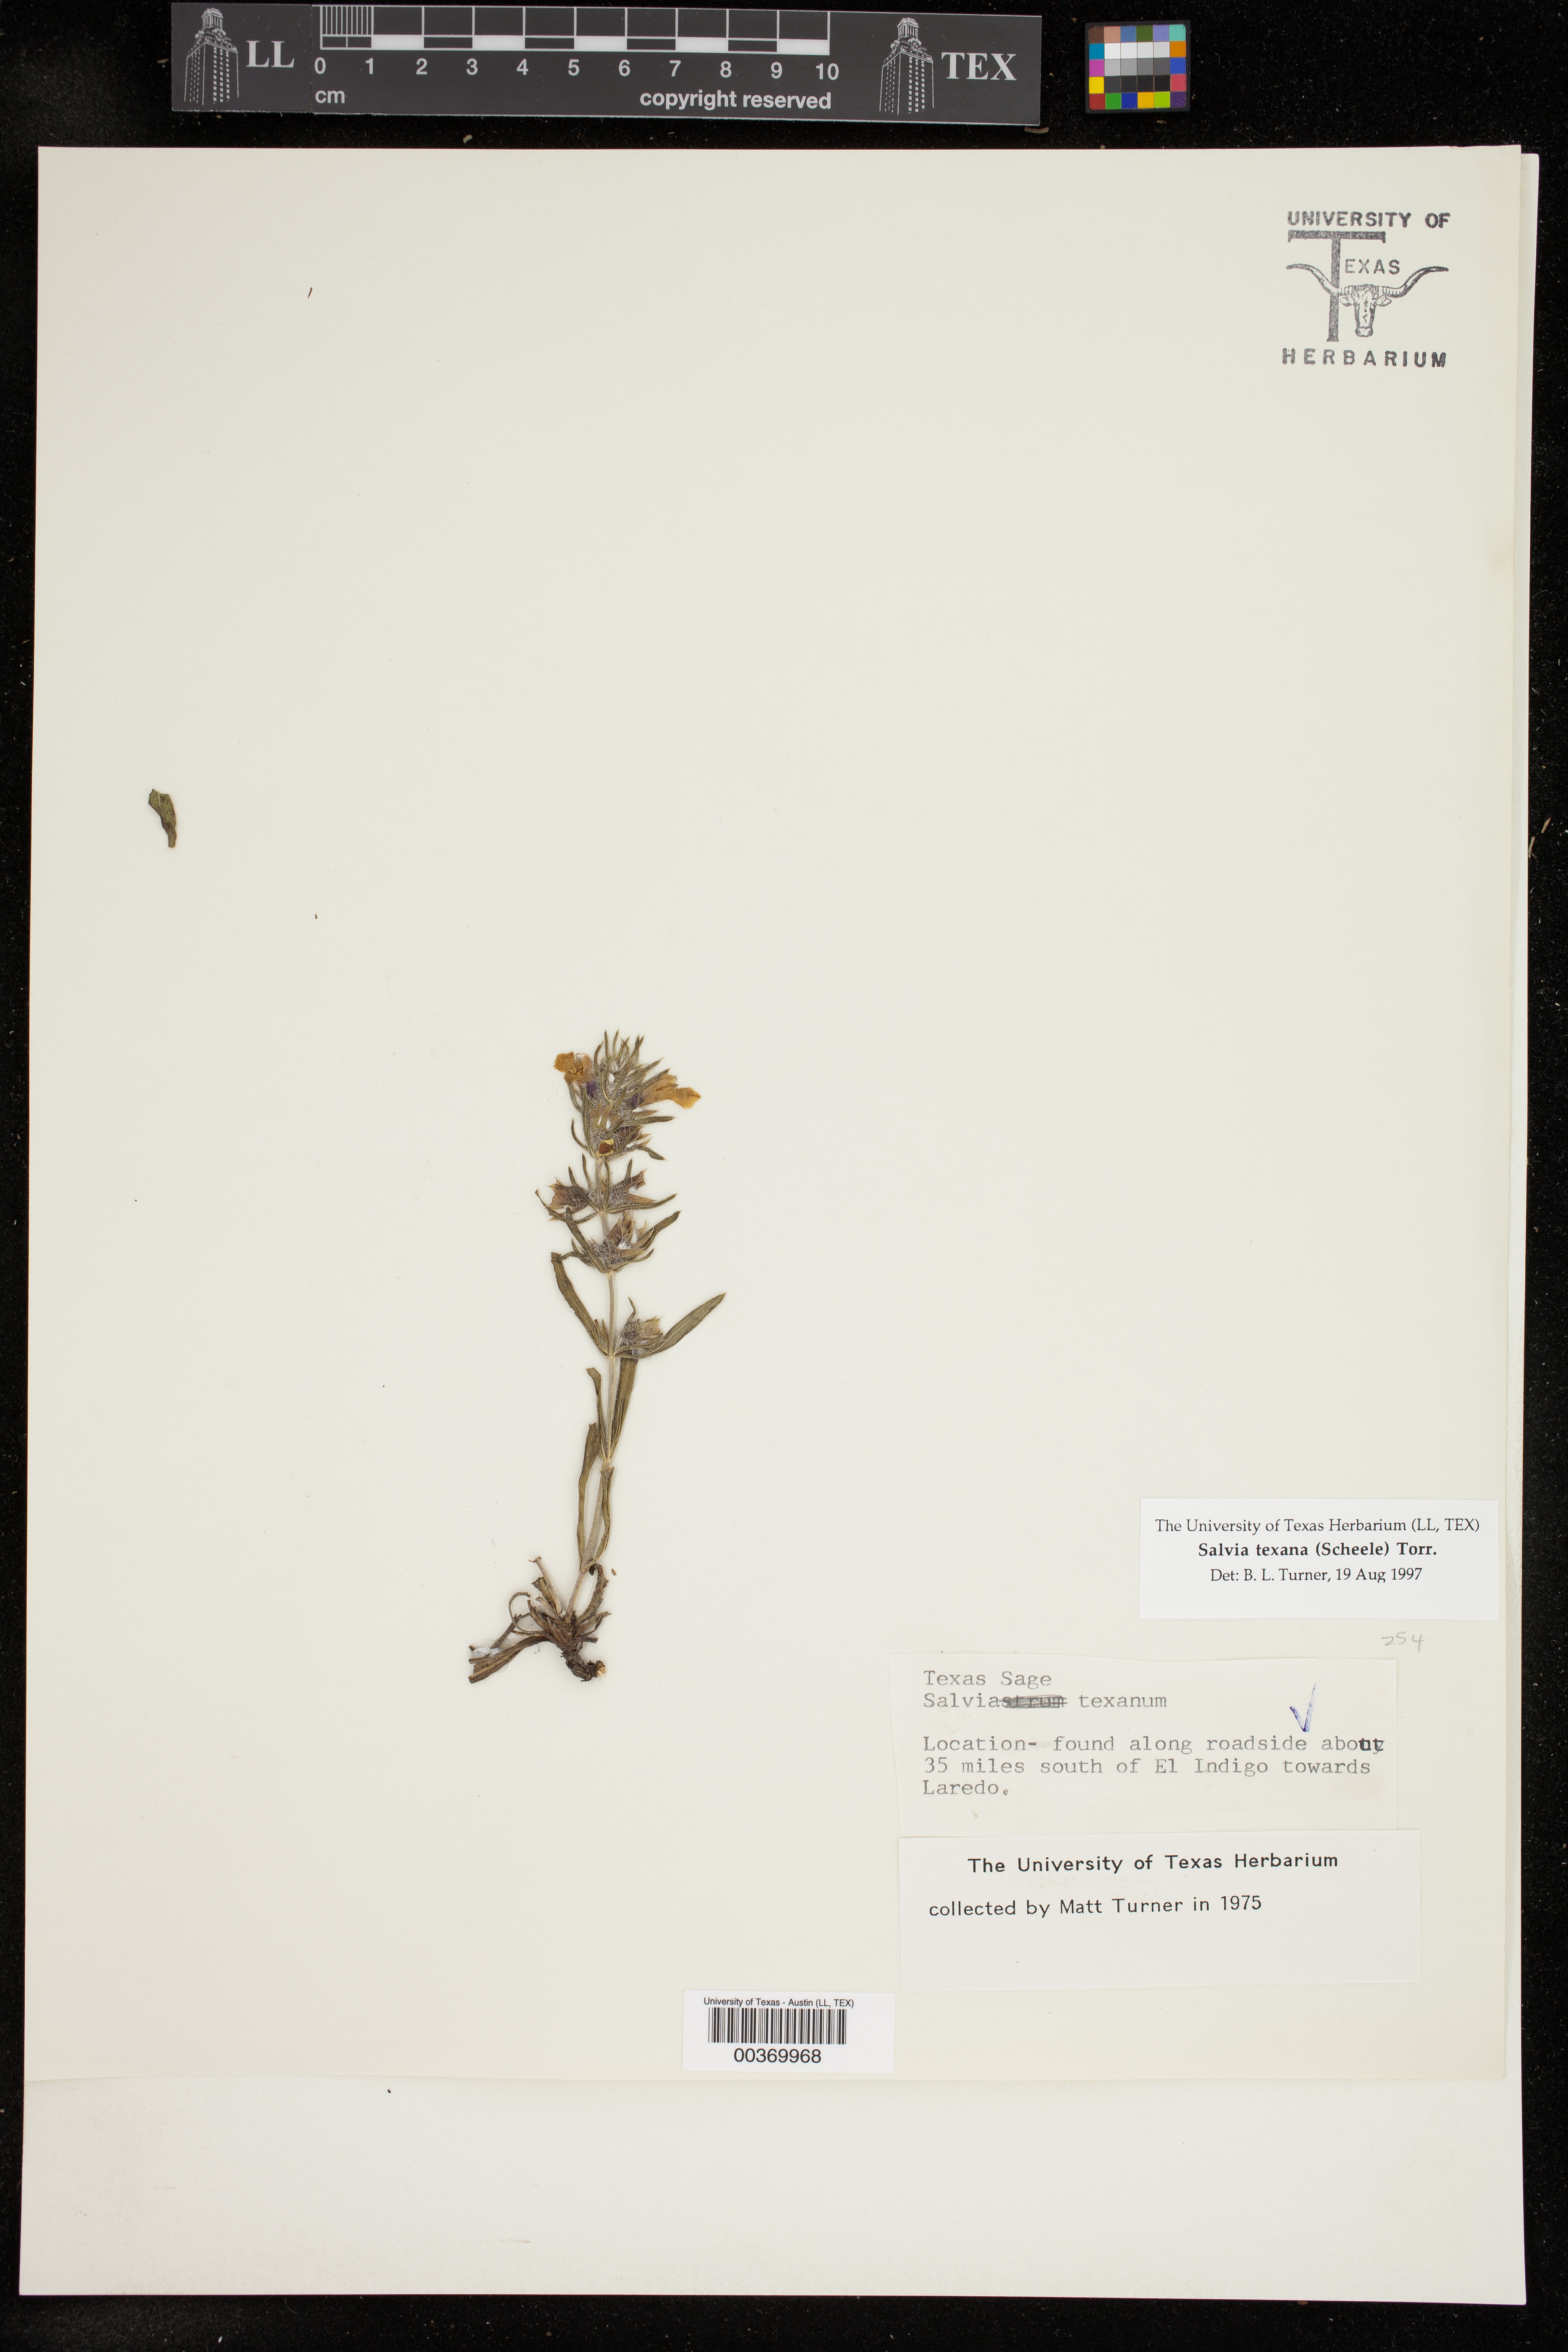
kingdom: Plantae
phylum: Tracheophyta
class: Magnoliopsida
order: Lamiales
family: Lamiaceae
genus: Salvia
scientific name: Salvia texana
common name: Texas sage
